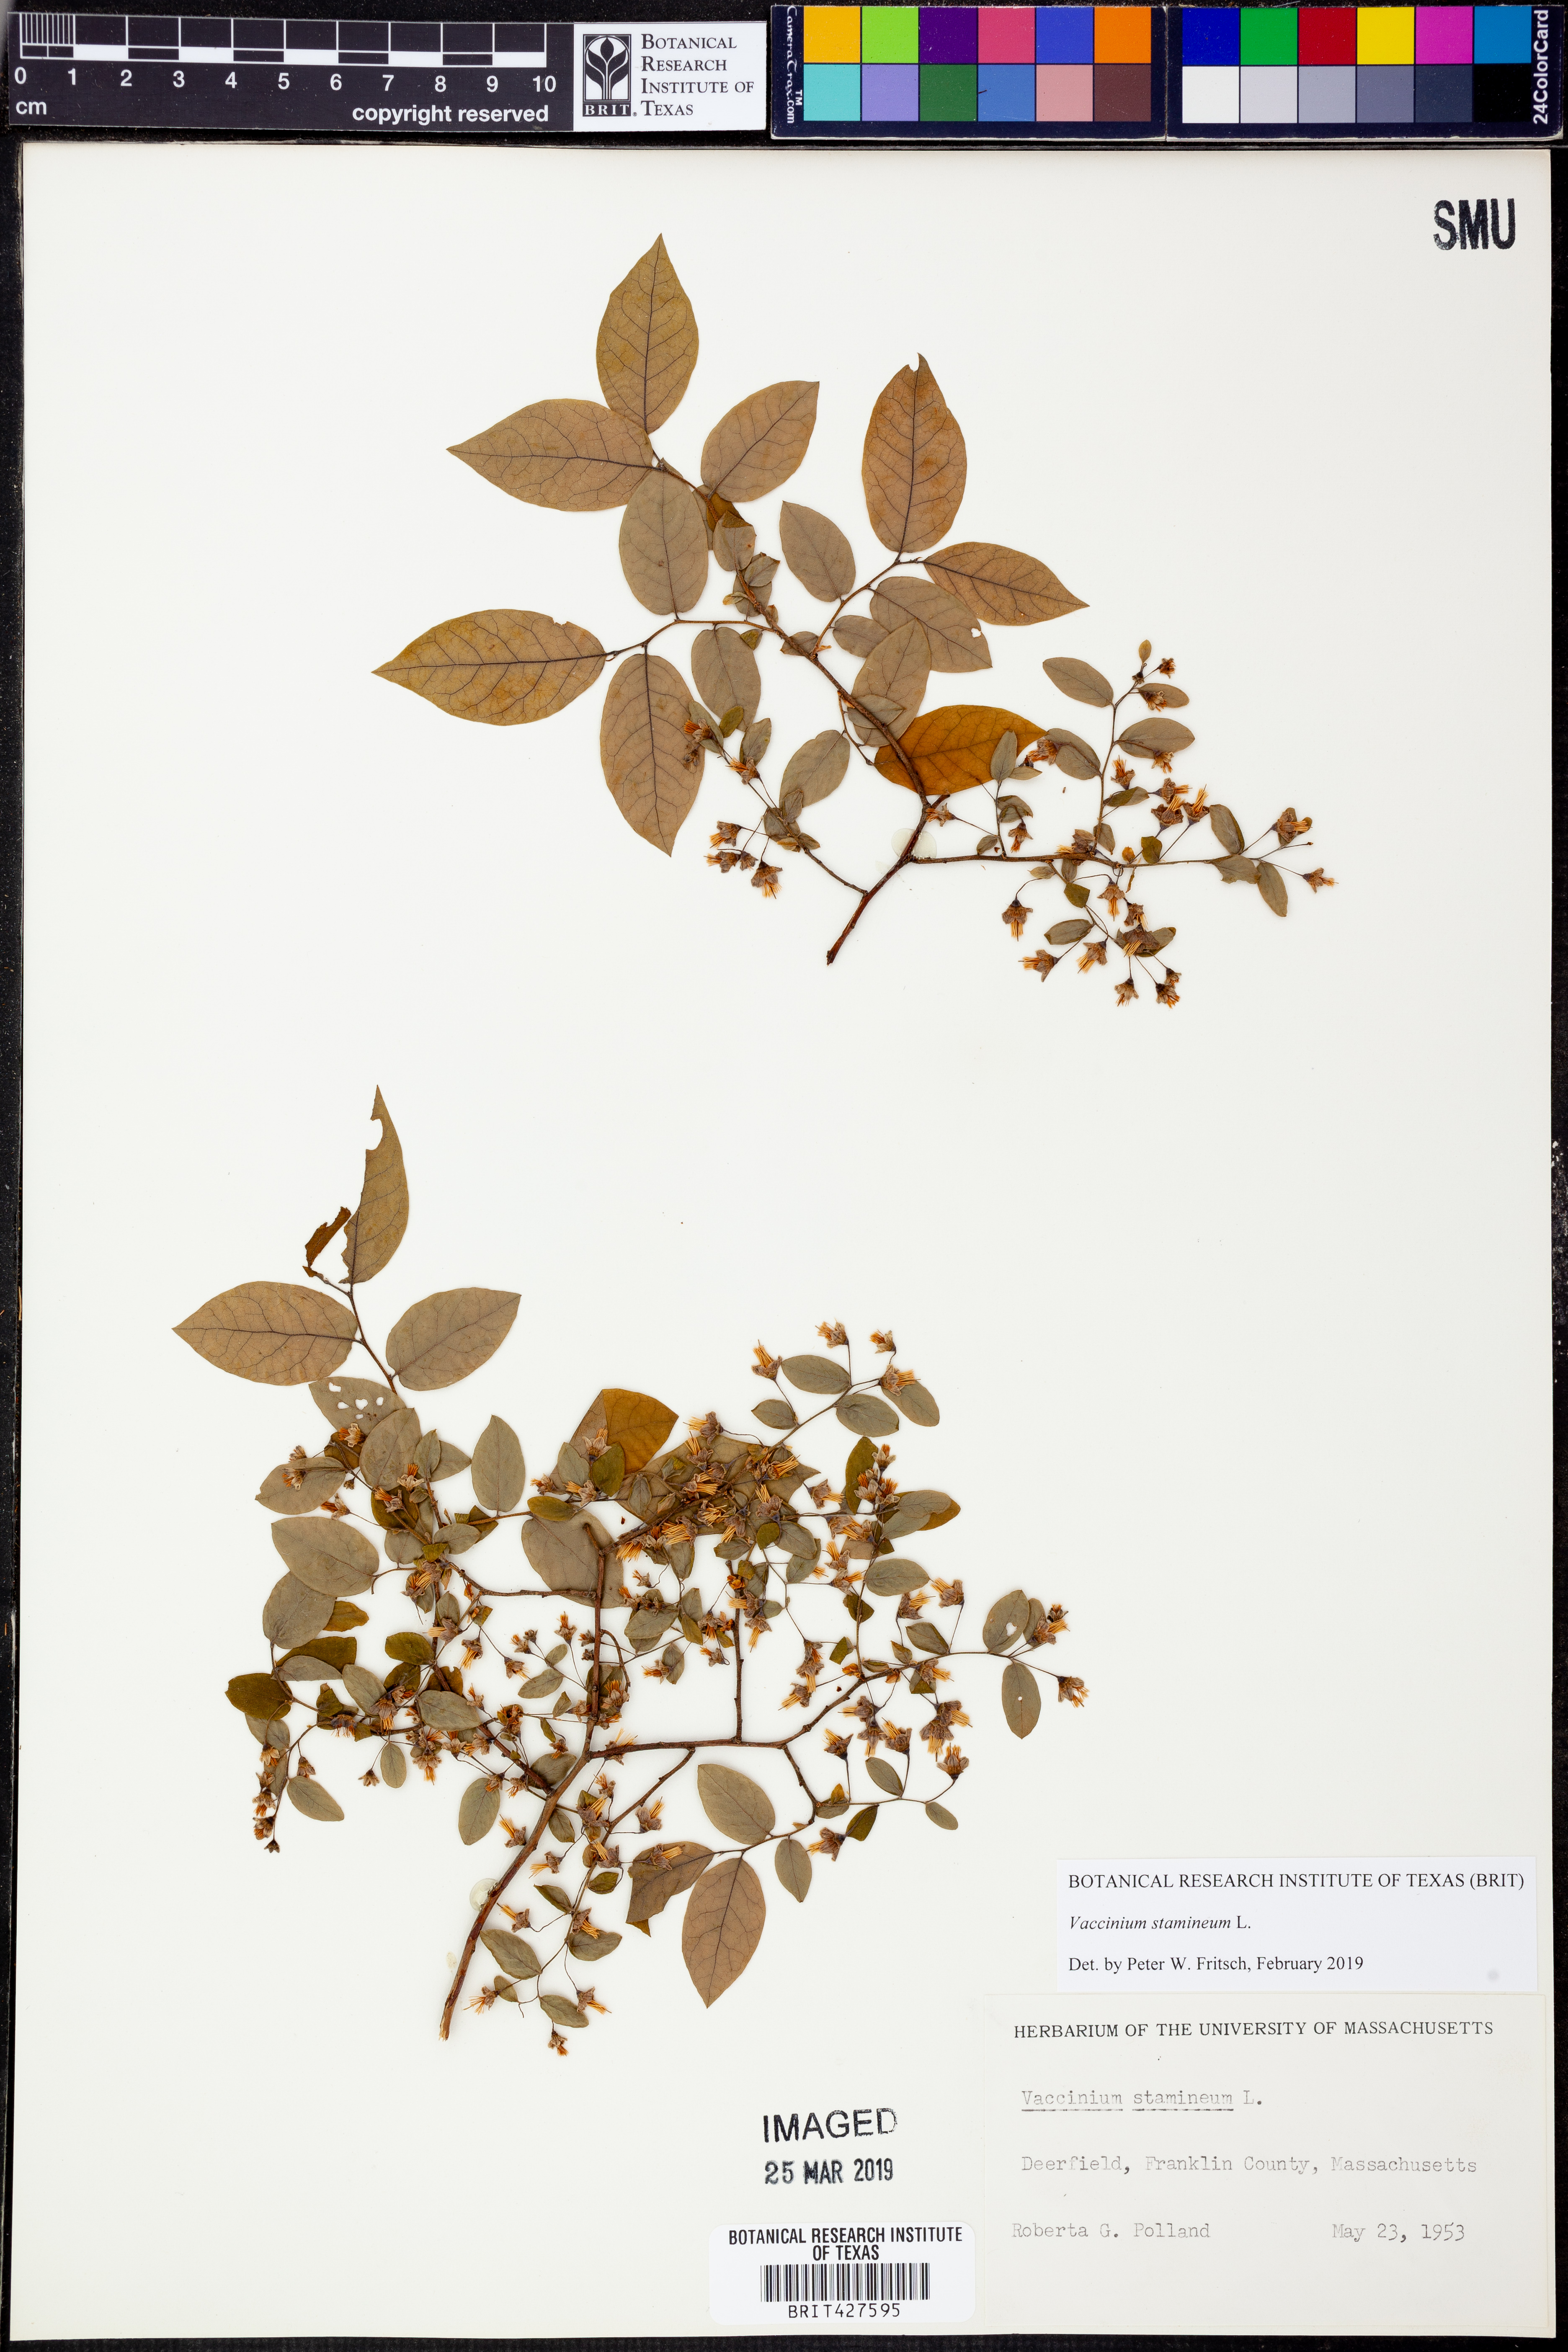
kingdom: Plantae
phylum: Tracheophyta
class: Magnoliopsida
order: Ericales
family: Ericaceae
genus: Vaccinium
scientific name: Vaccinium stamineum
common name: Deerberry
